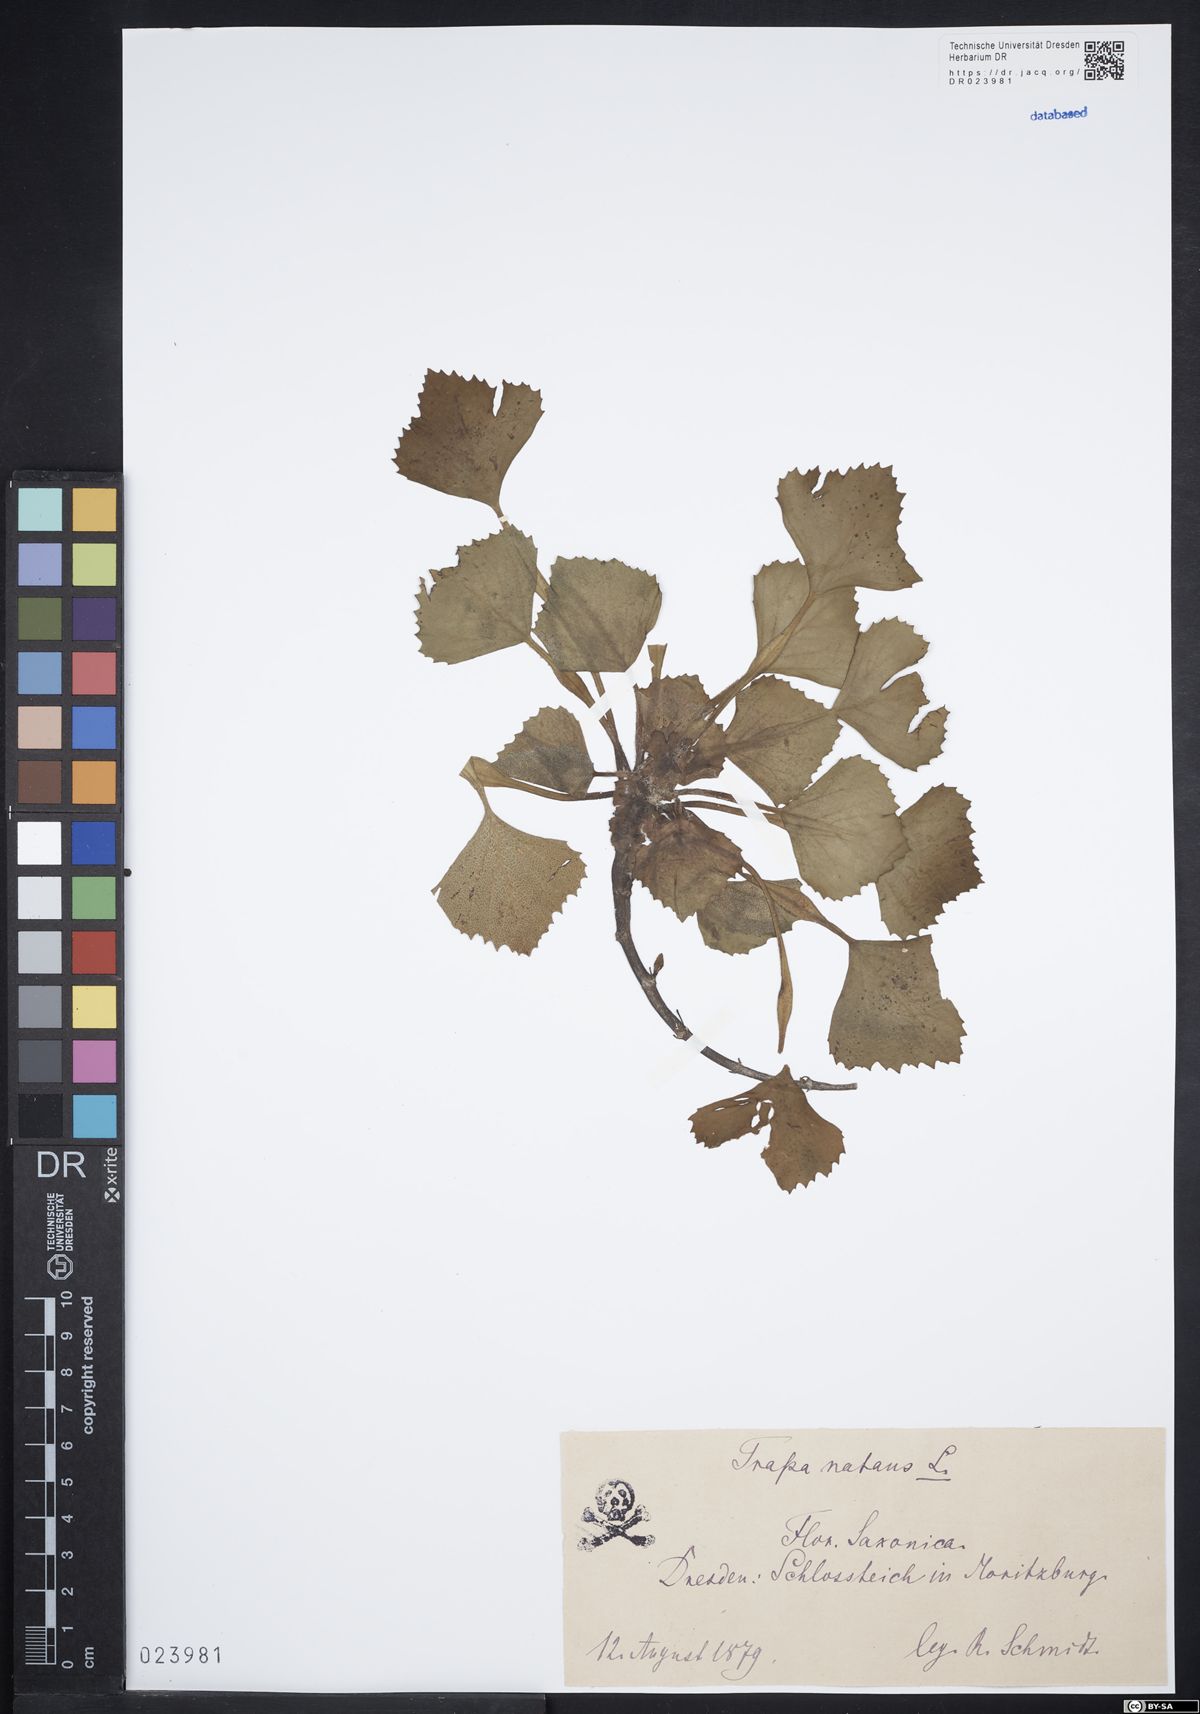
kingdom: Plantae
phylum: Tracheophyta
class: Magnoliopsida
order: Myrtales
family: Lythraceae
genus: Trapa
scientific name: Trapa natans
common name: Water chestnut
